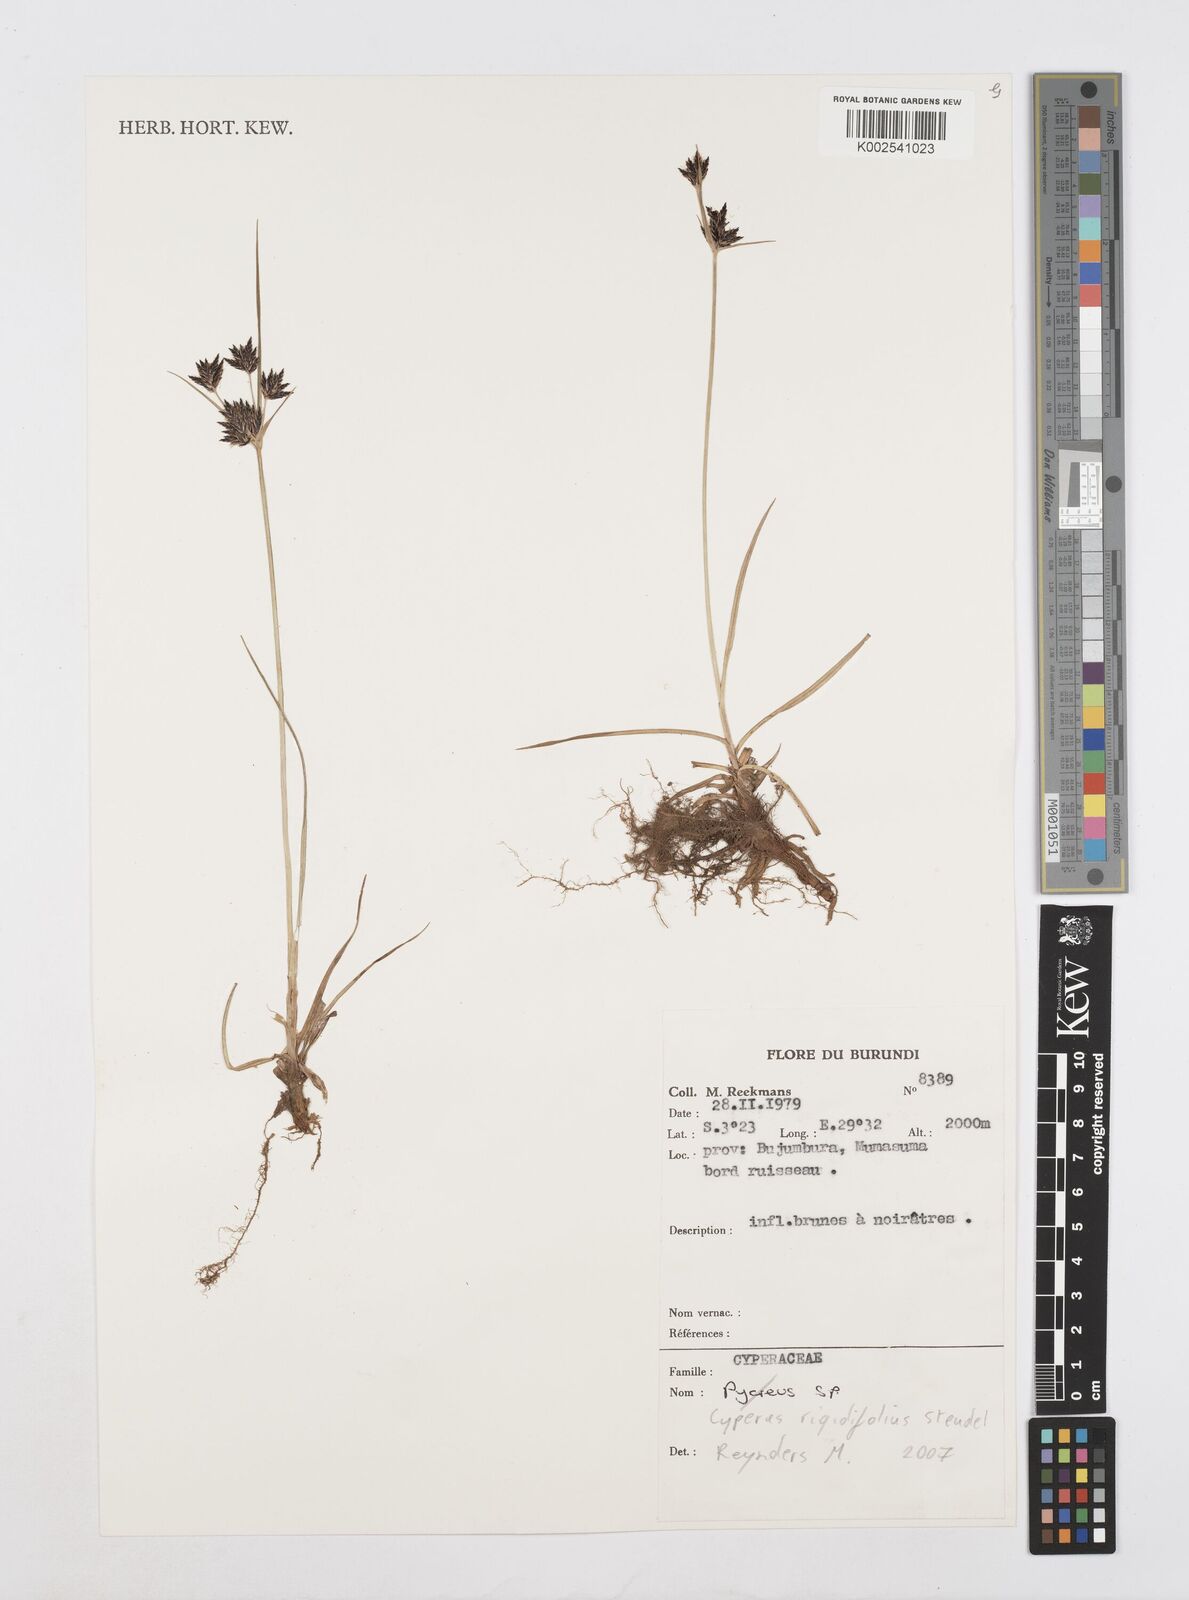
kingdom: Plantae
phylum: Tracheophyta
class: Liliopsida
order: Poales
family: Cyperaceae
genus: Cyperus
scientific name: Cyperus
